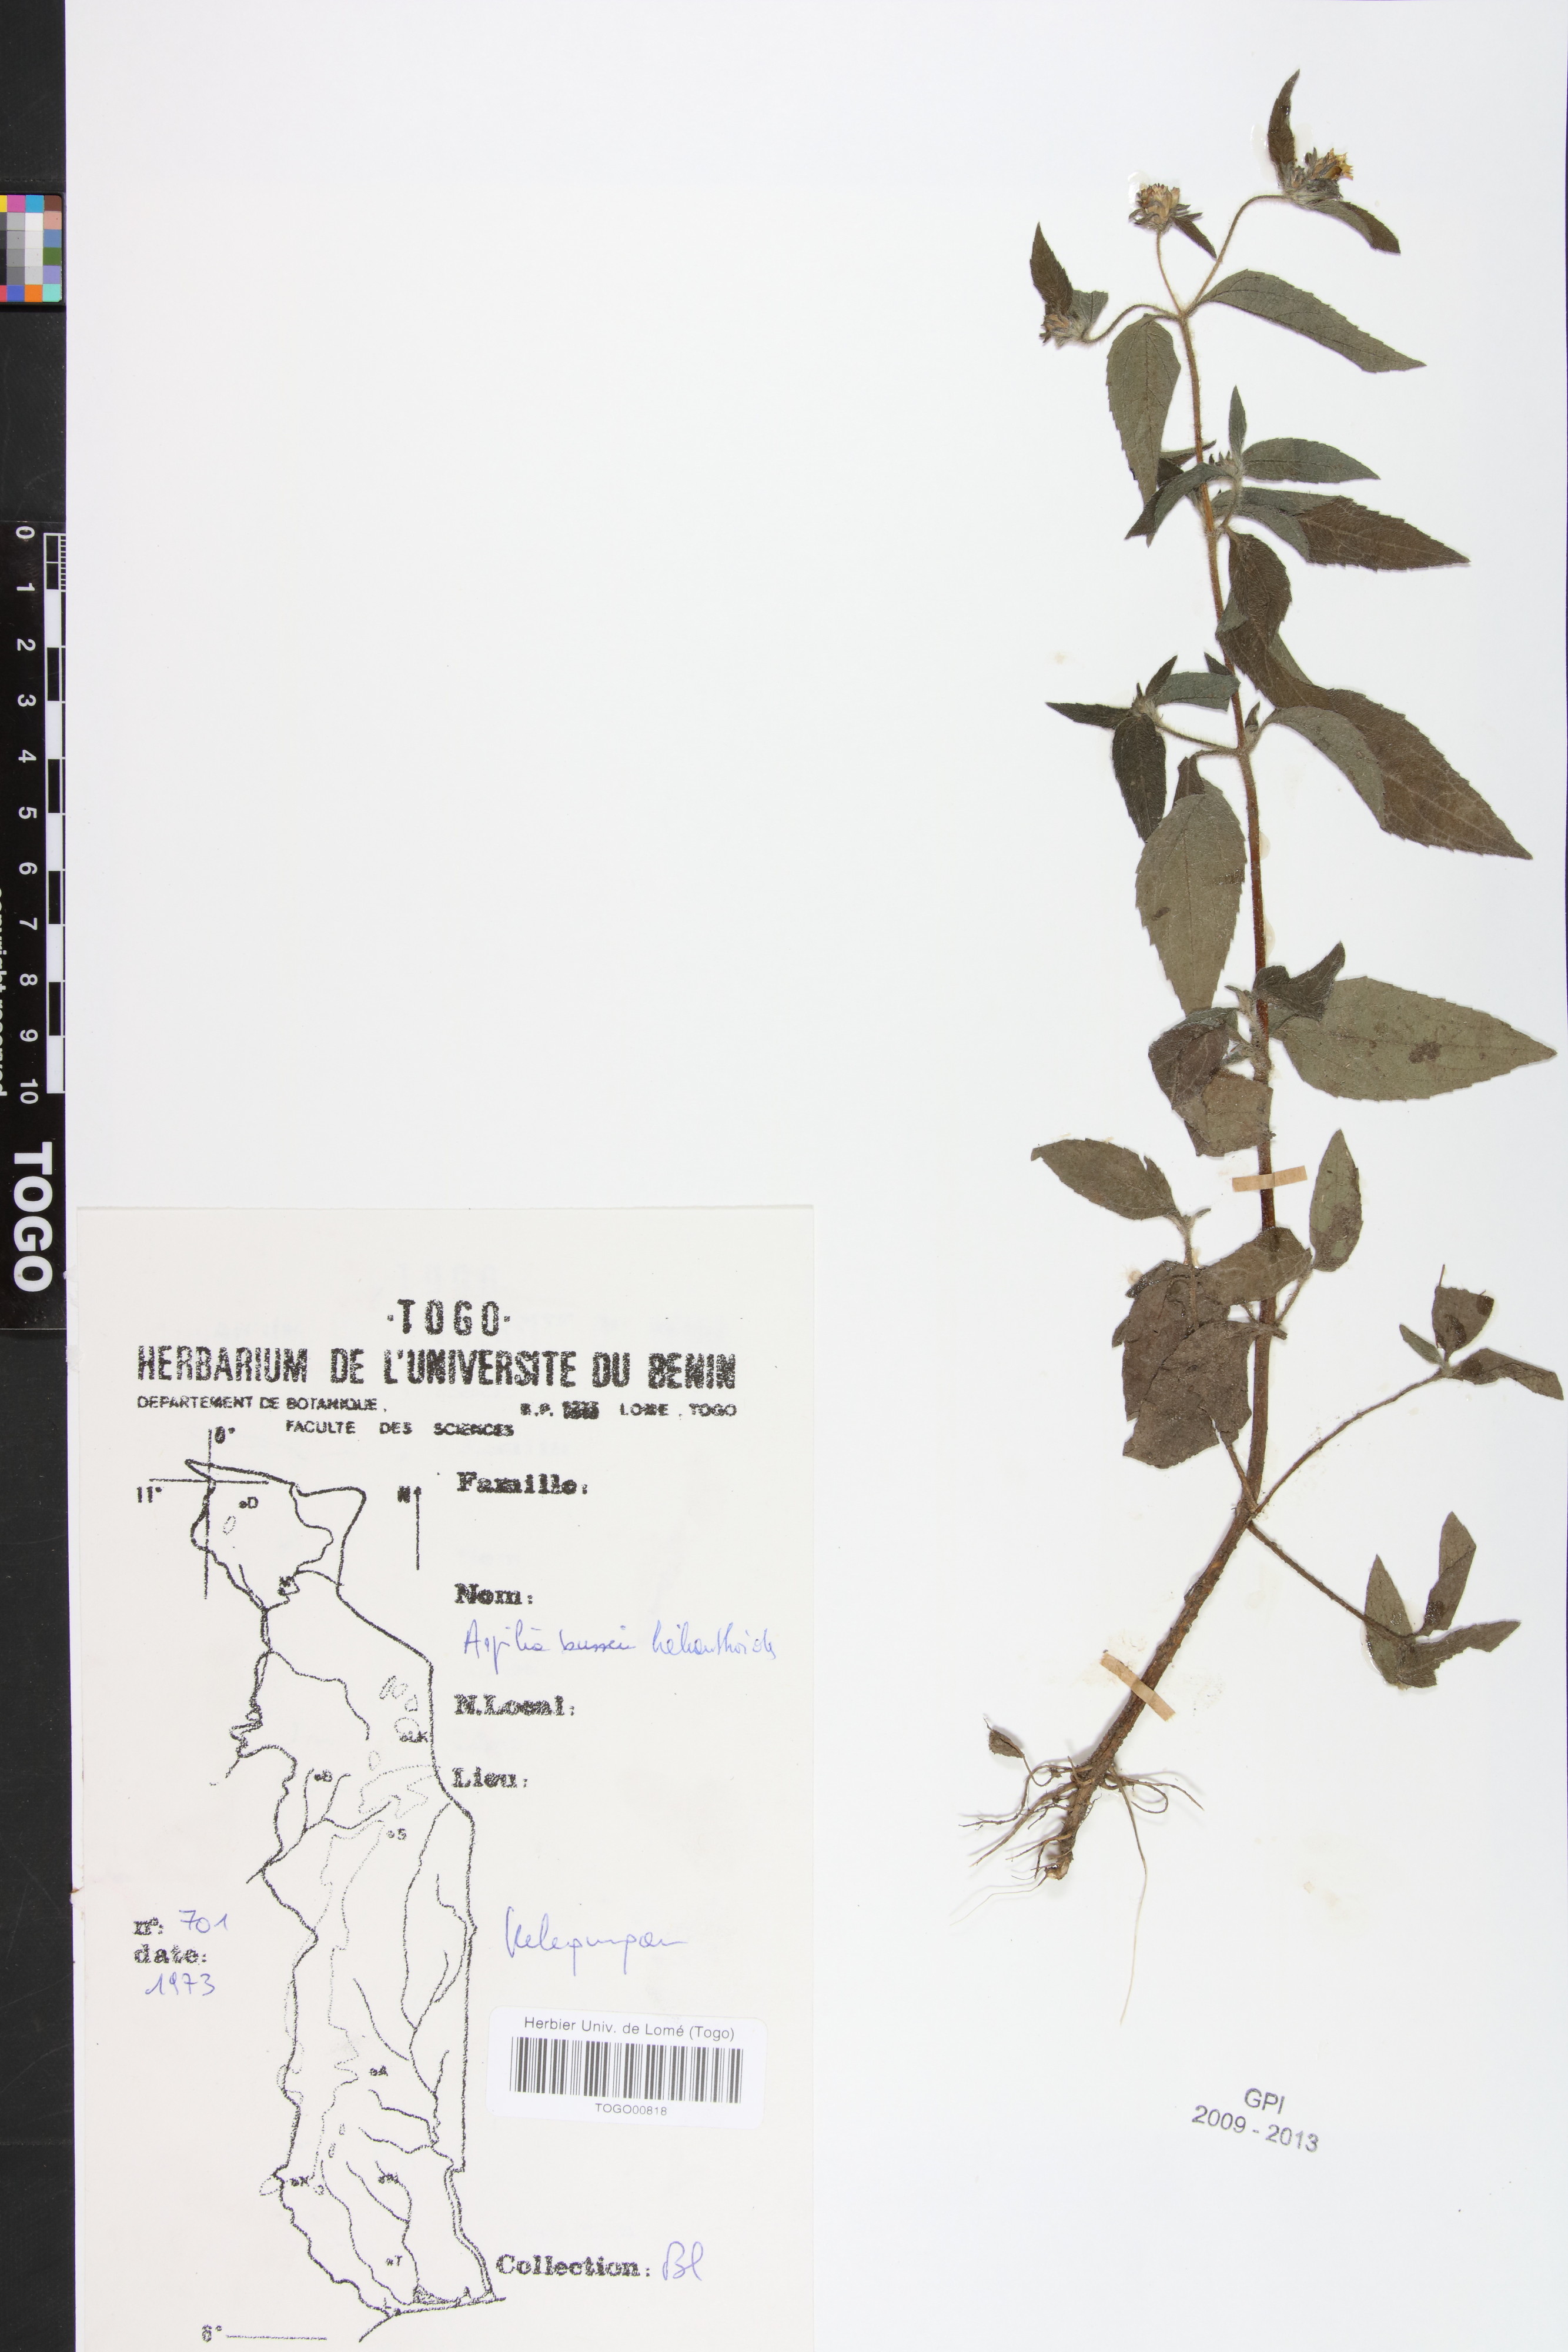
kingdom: Plantae
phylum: Tracheophyta
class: Magnoliopsida
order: Asterales
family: Asteraceae
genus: Aspilia
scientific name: Aspilia helianthoides
